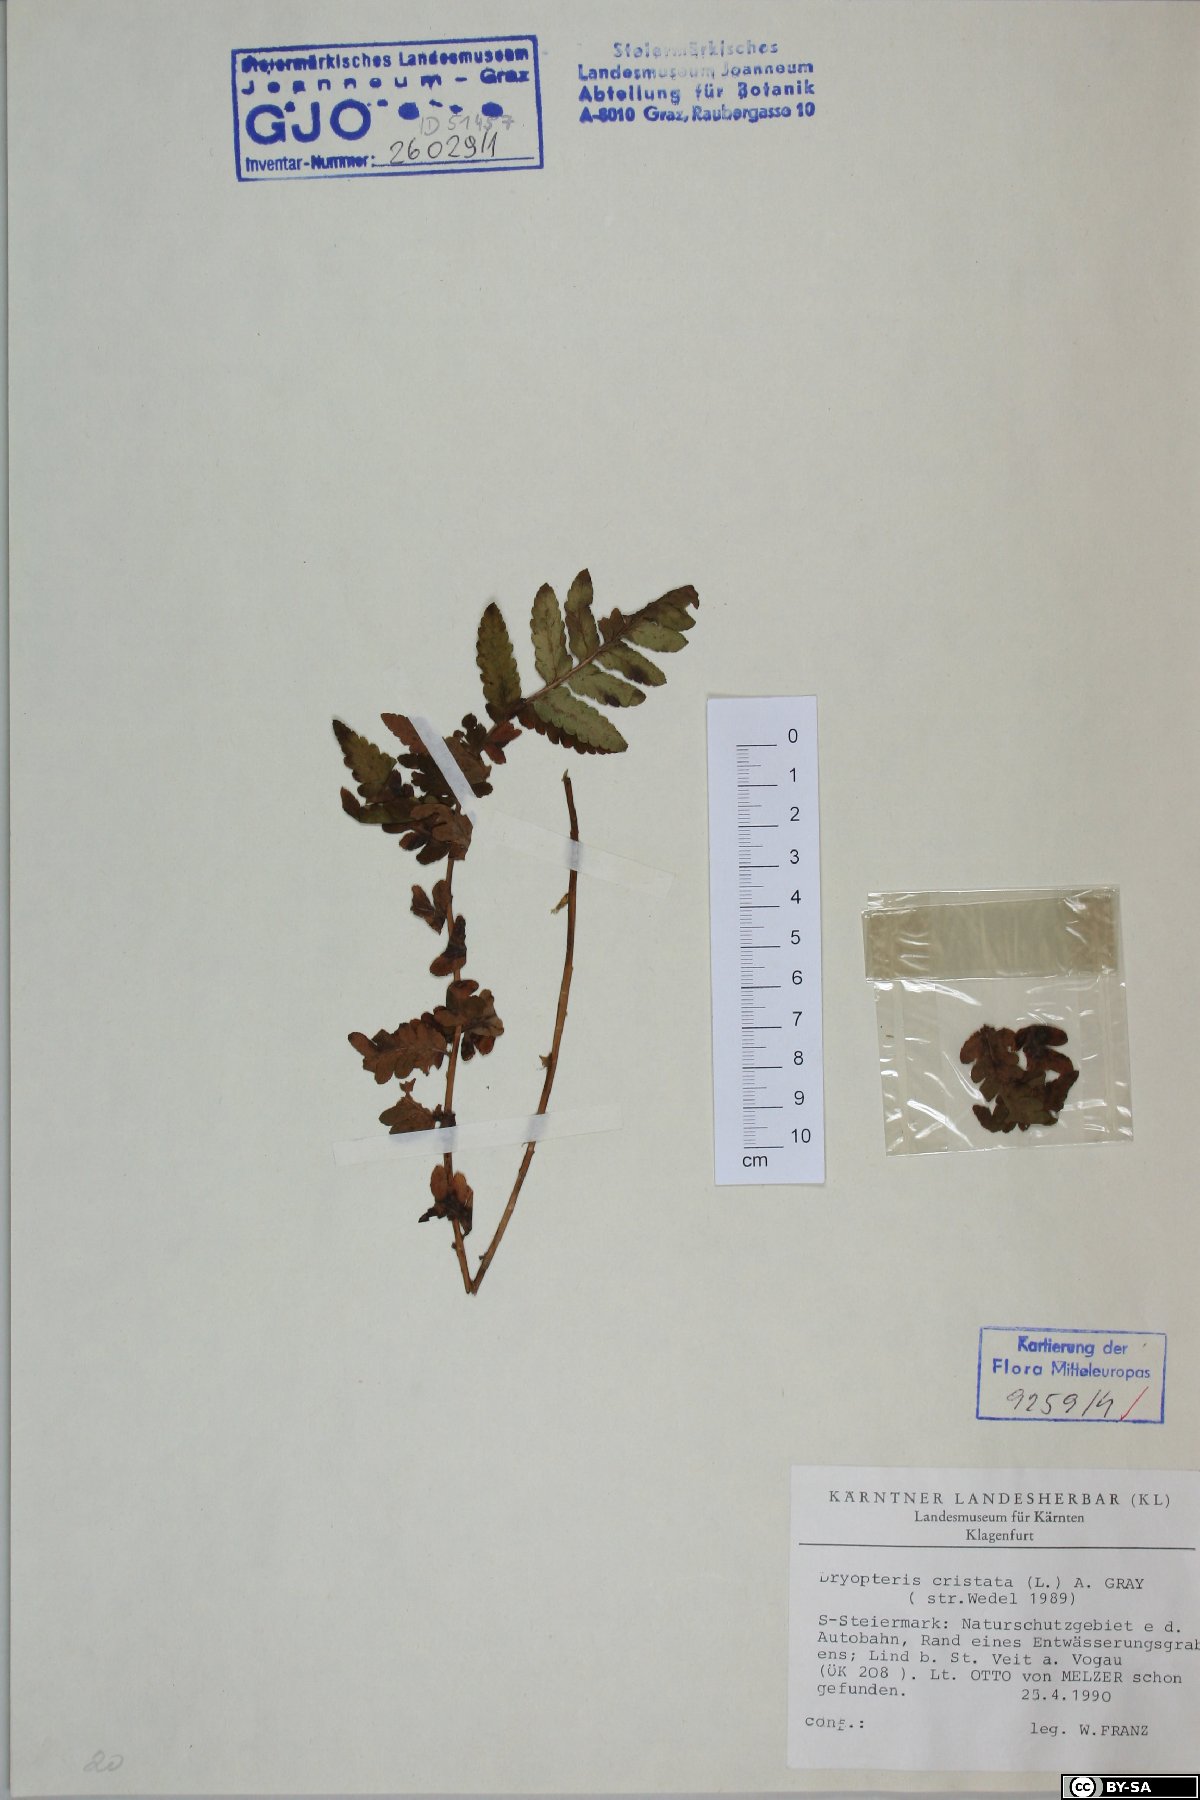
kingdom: Plantae
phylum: Tracheophyta
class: Polypodiopsida
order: Polypodiales
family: Dryopteridaceae
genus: Dryopteris
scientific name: Dryopteris cristata
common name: Crested wood fern
